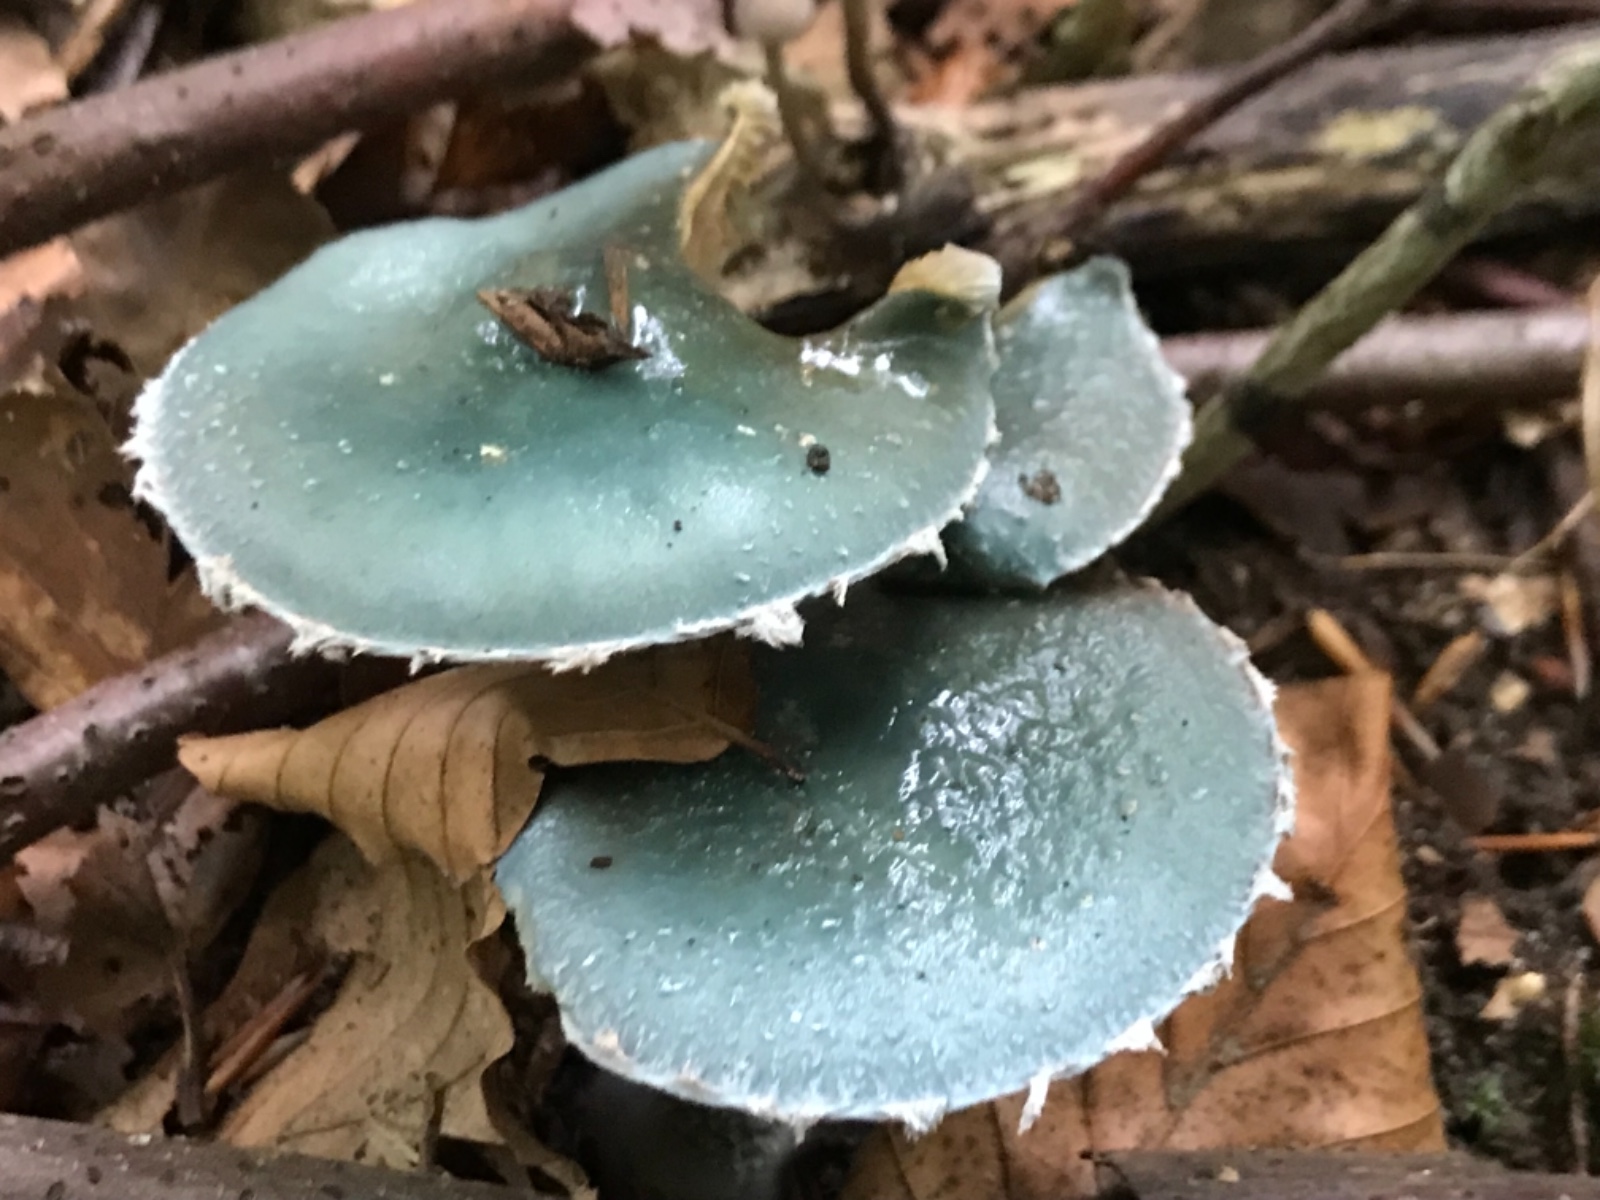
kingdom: Fungi
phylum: Basidiomycota
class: Agaricomycetes
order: Agaricales
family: Strophariaceae
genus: Stropharia
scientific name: Stropharia cyanea
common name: blågrøn bredblad
